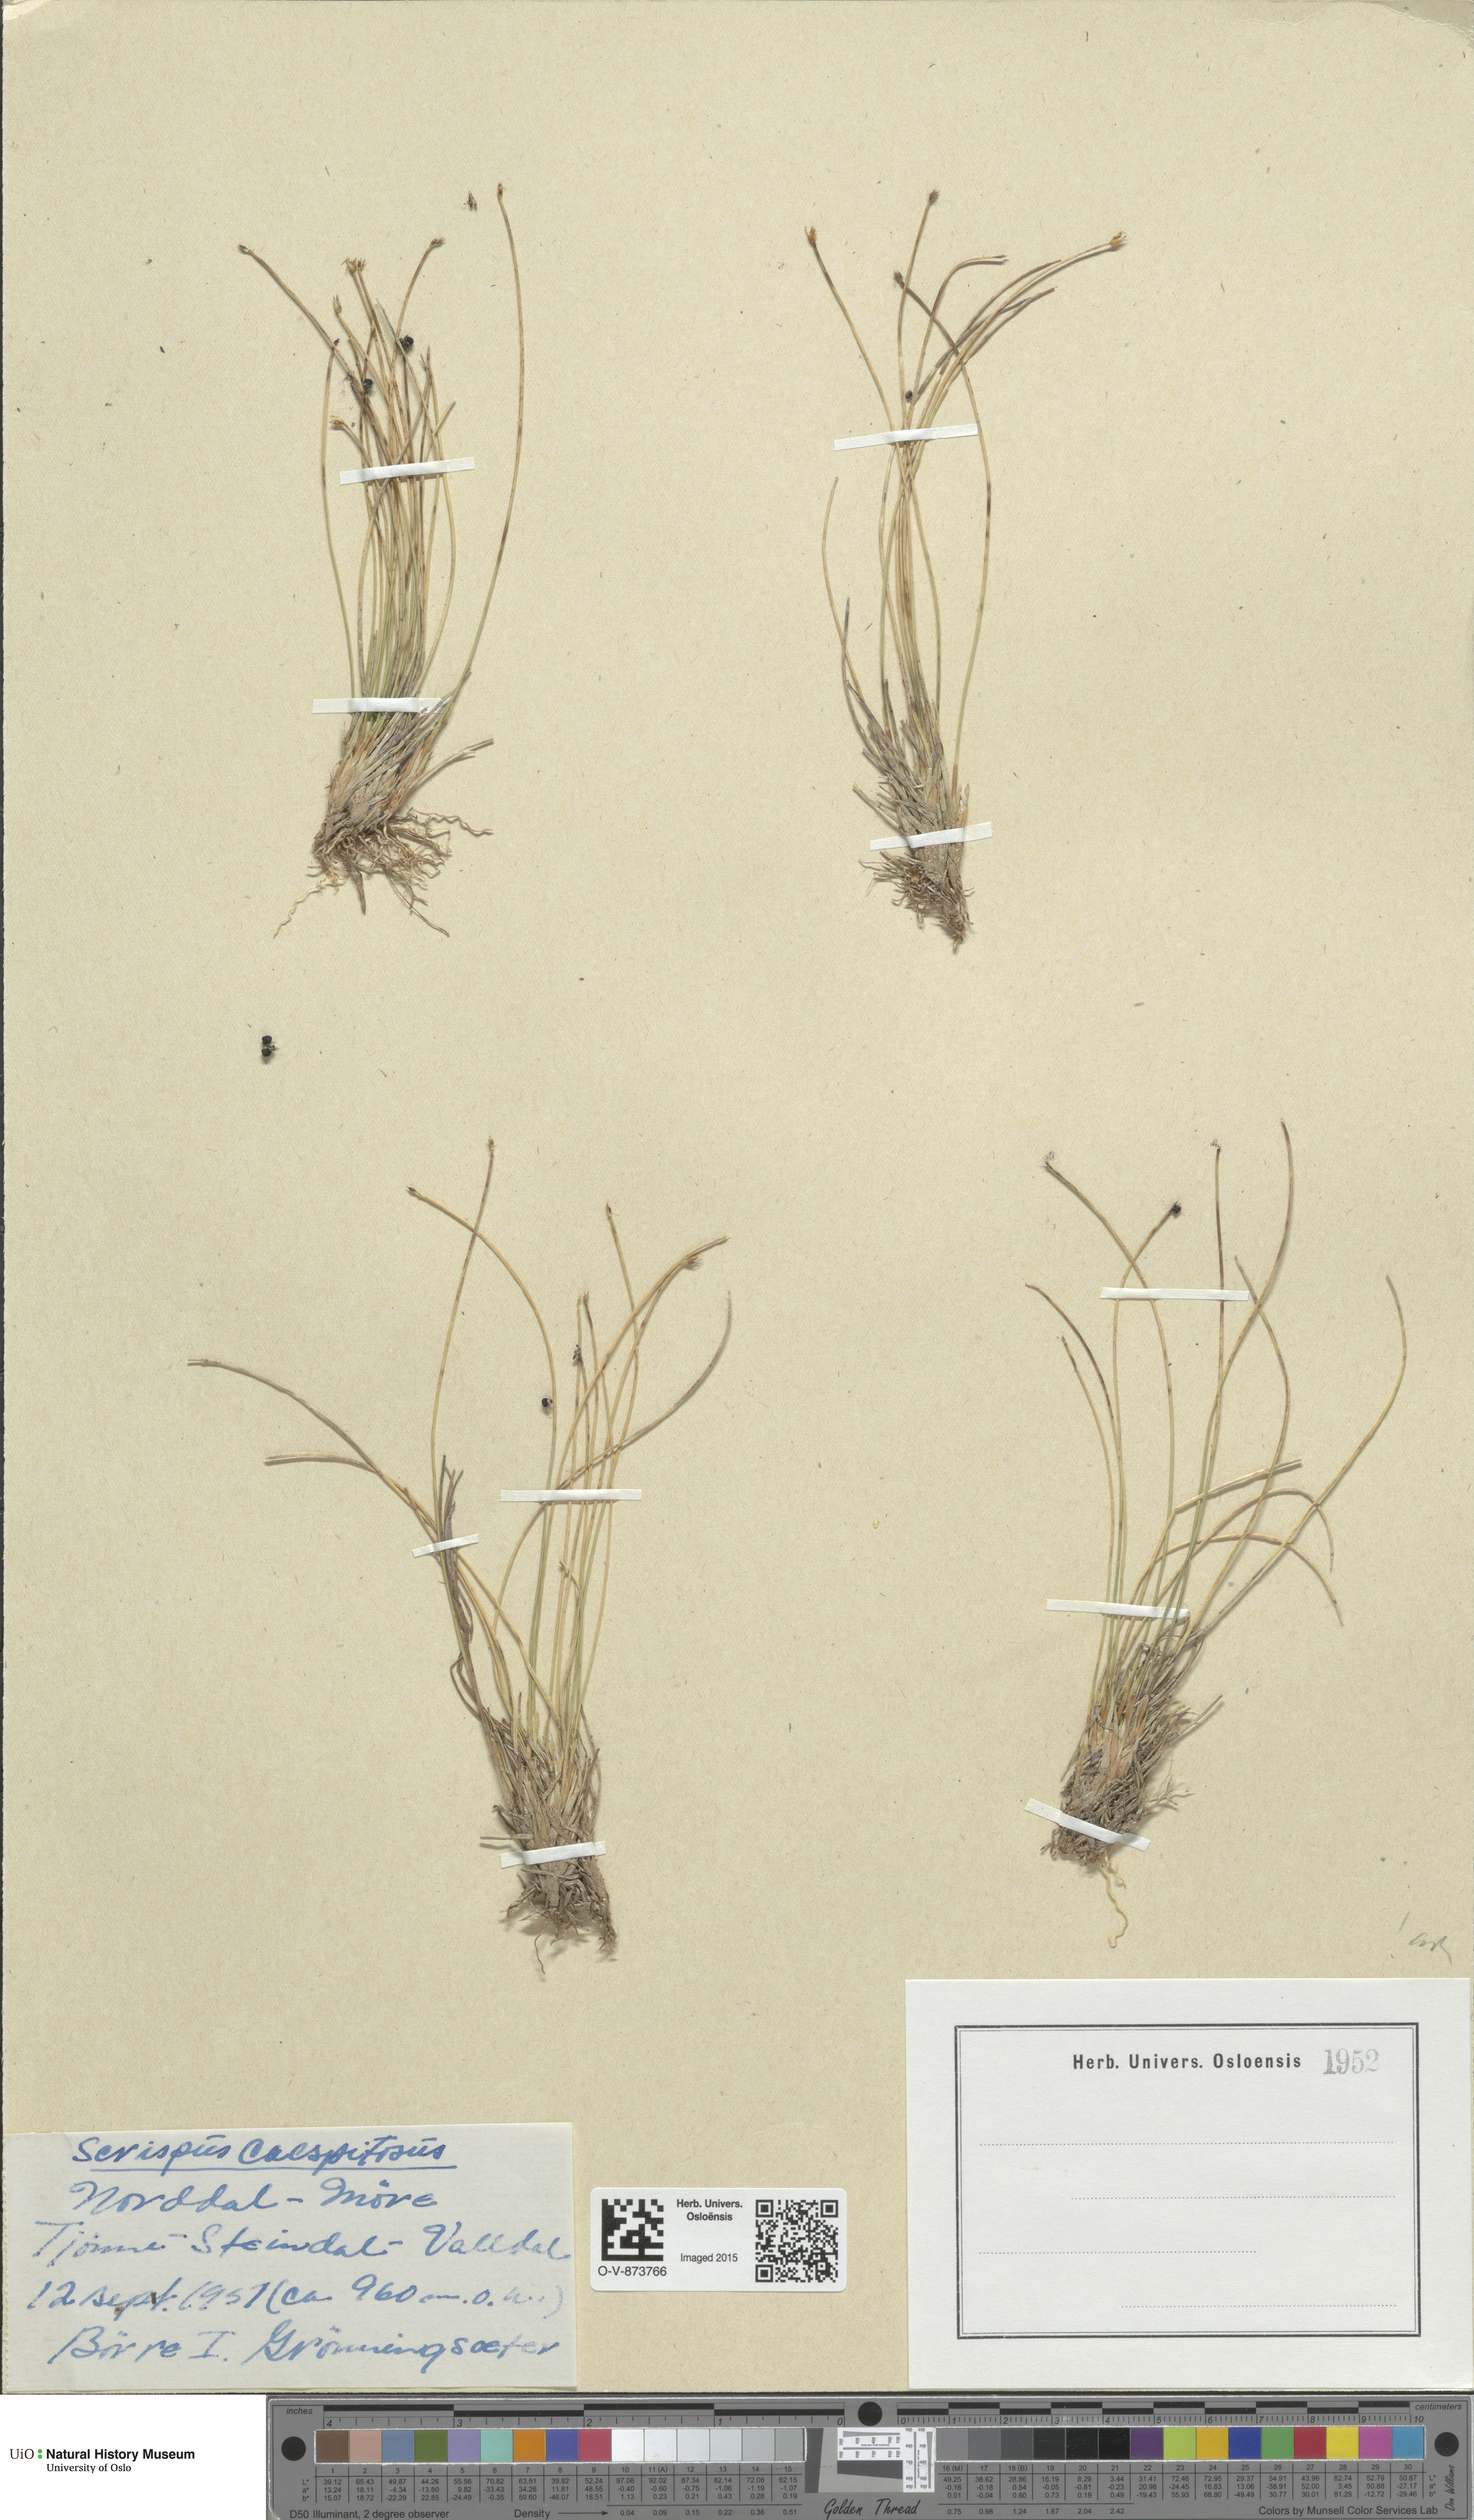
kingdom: Plantae
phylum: Tracheophyta
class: Liliopsida
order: Poales
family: Cyperaceae
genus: Trichophorum
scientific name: Trichophorum cespitosum
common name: Cespitose bulrush
